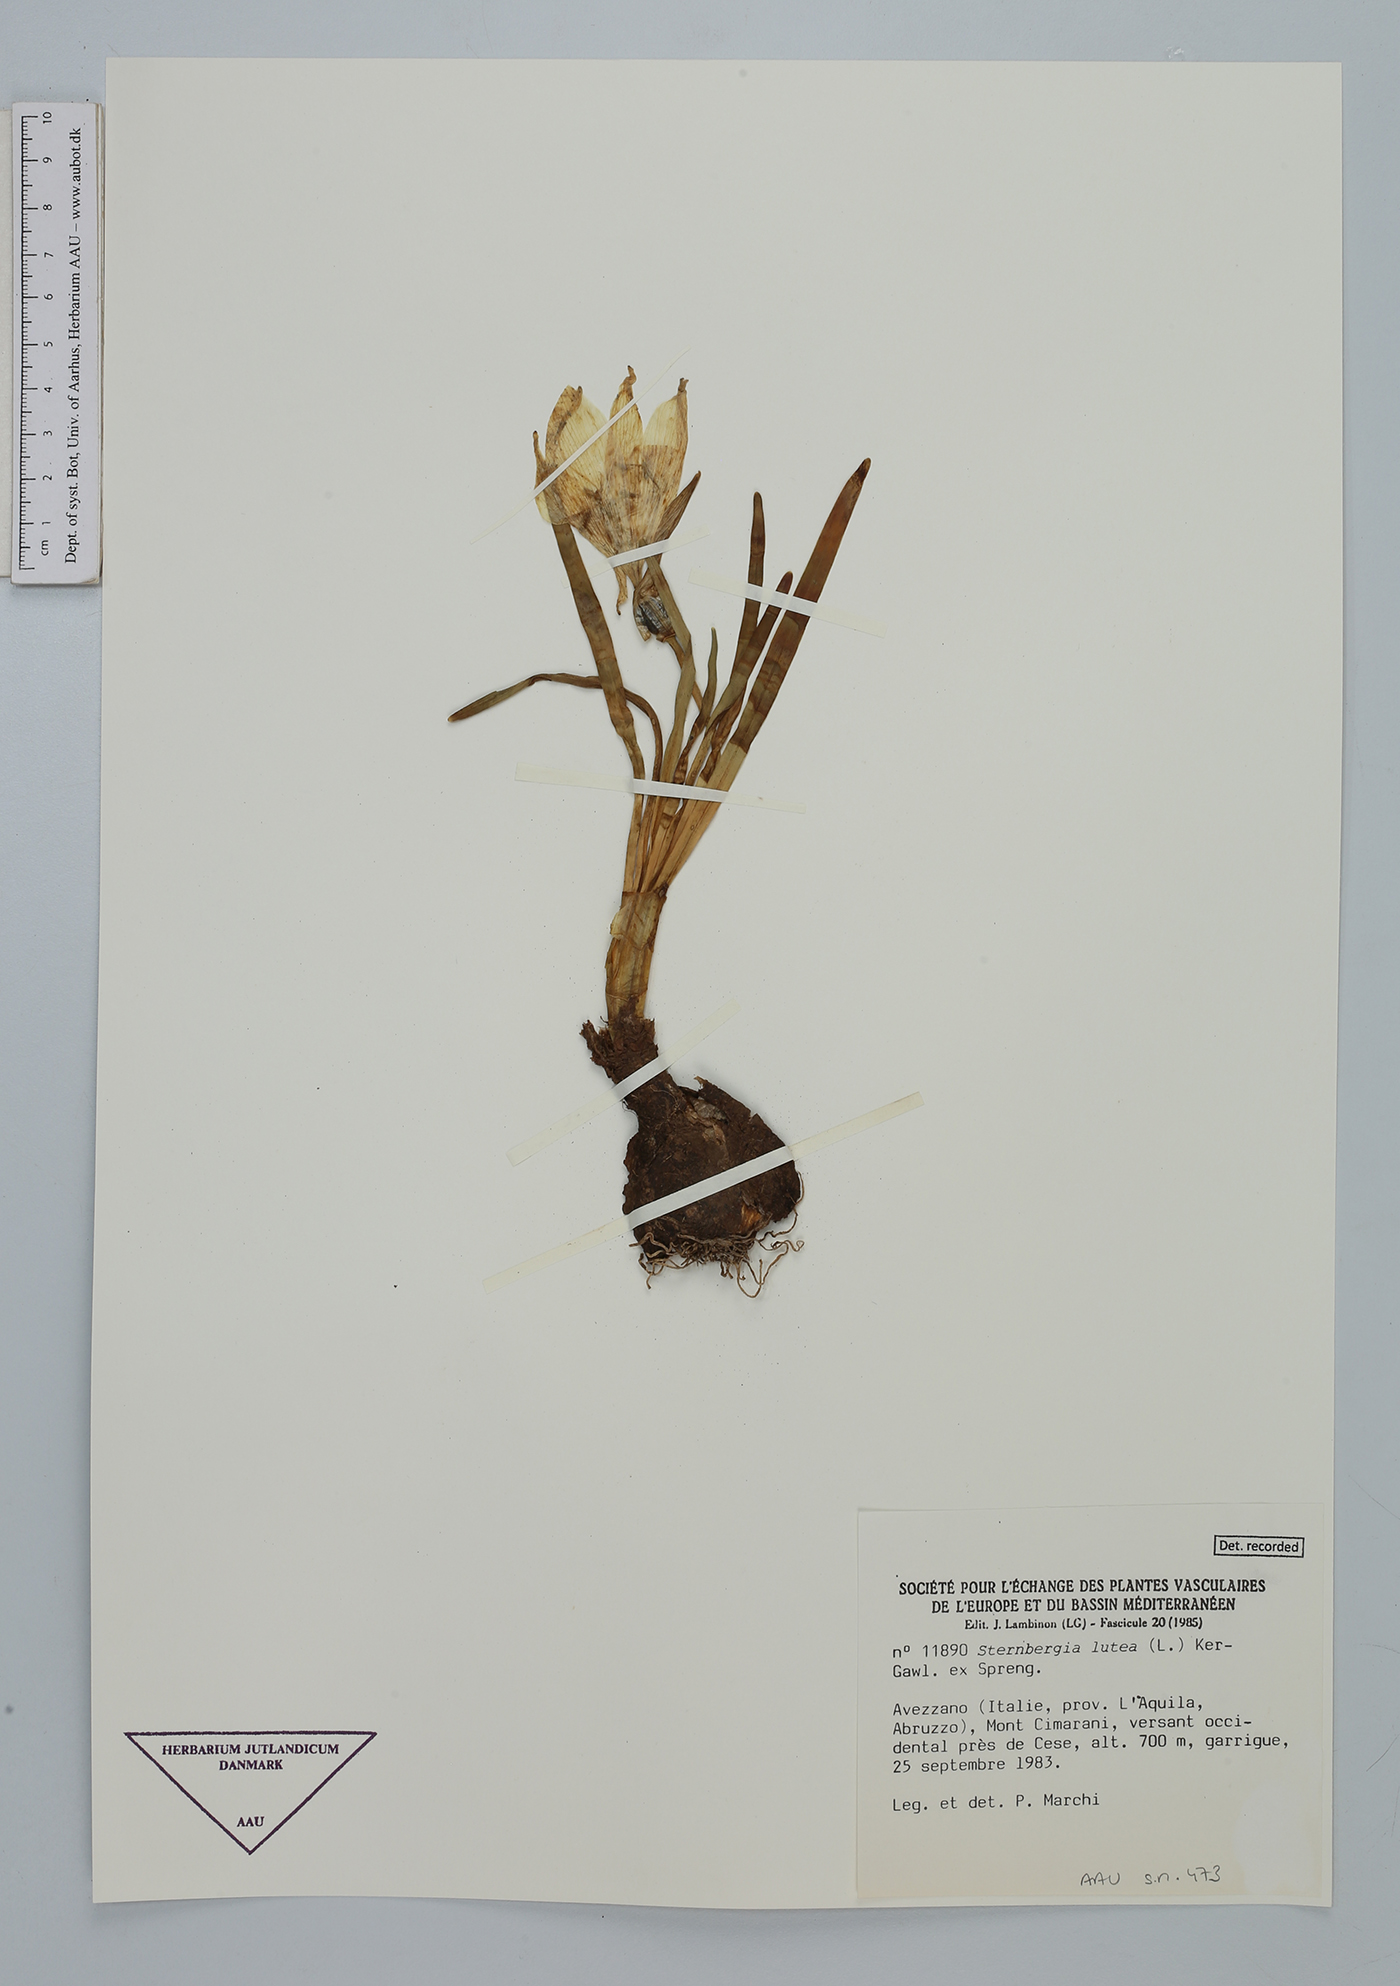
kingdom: Plantae
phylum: Tracheophyta
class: Liliopsida
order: Asparagales
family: Amaryllidaceae
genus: Sternbergia
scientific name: Sternbergia lutea
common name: Winter daffodil
